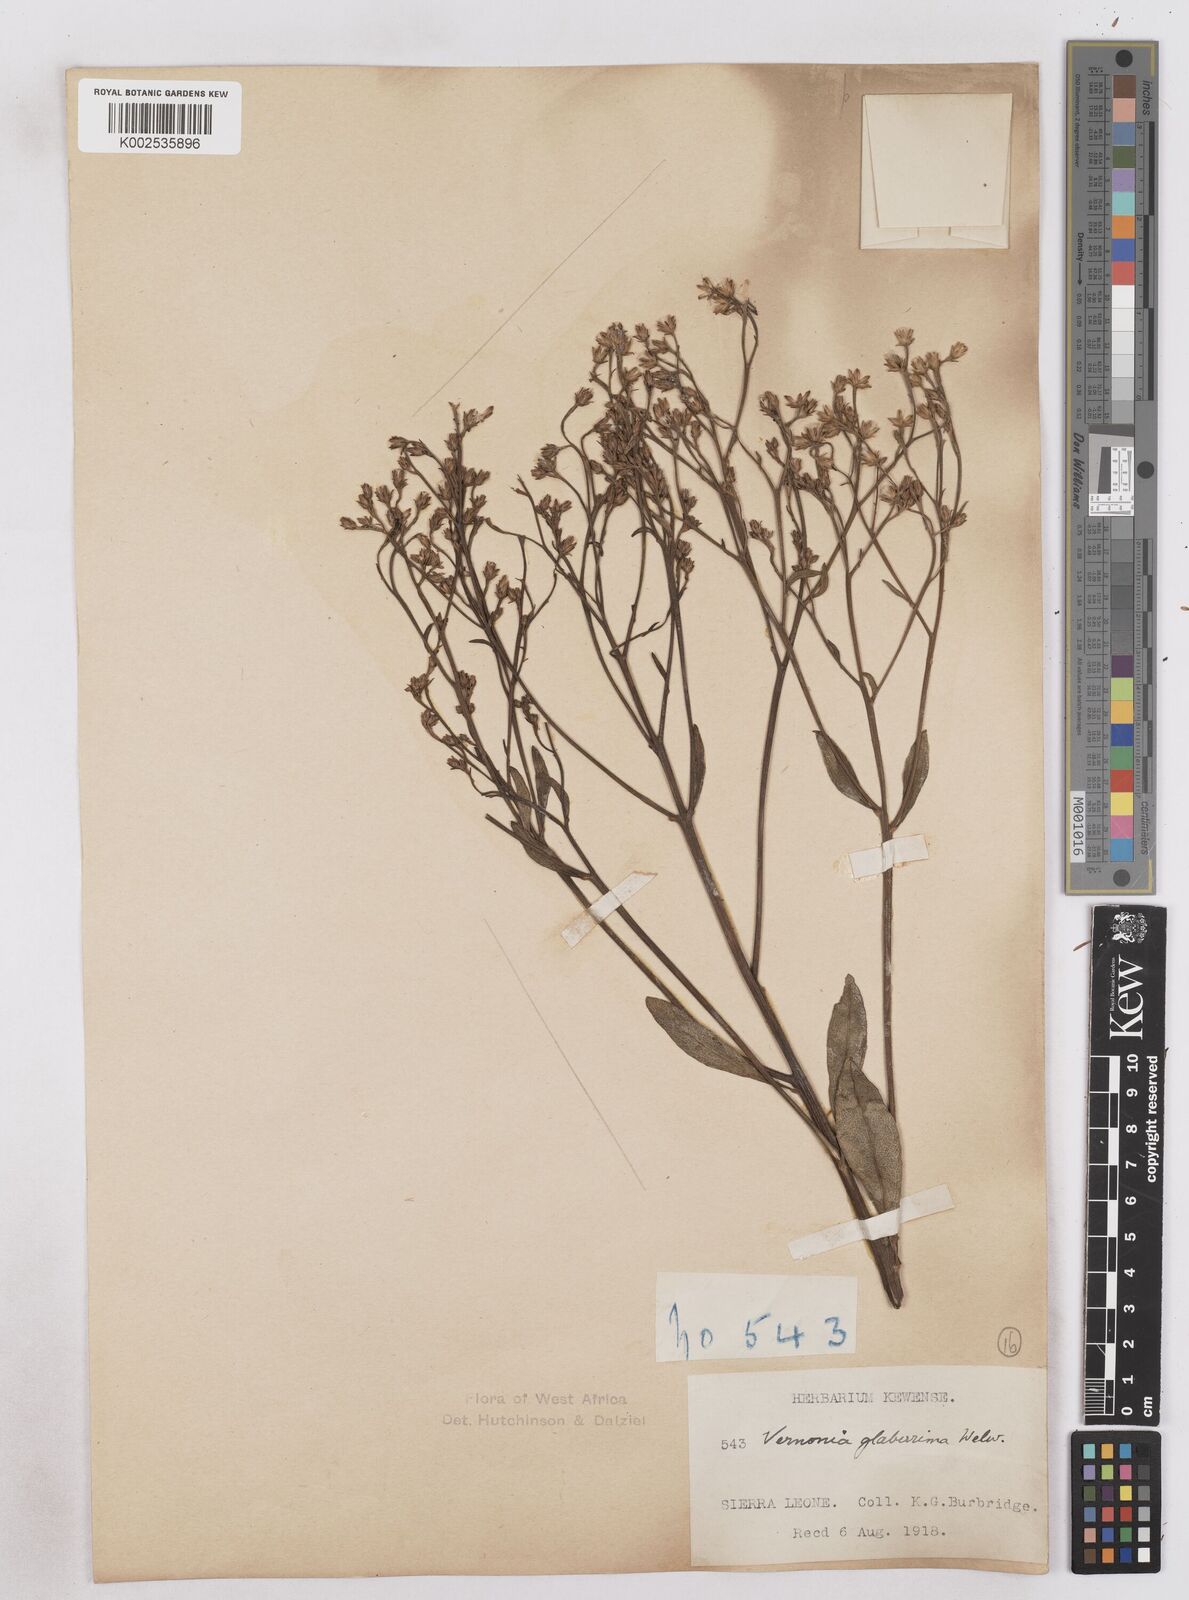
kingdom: Plantae
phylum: Tracheophyta
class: Magnoliopsida
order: Asterales
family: Asteraceae
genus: Gymnanthemum
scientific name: Gymnanthemum glaberrimum
